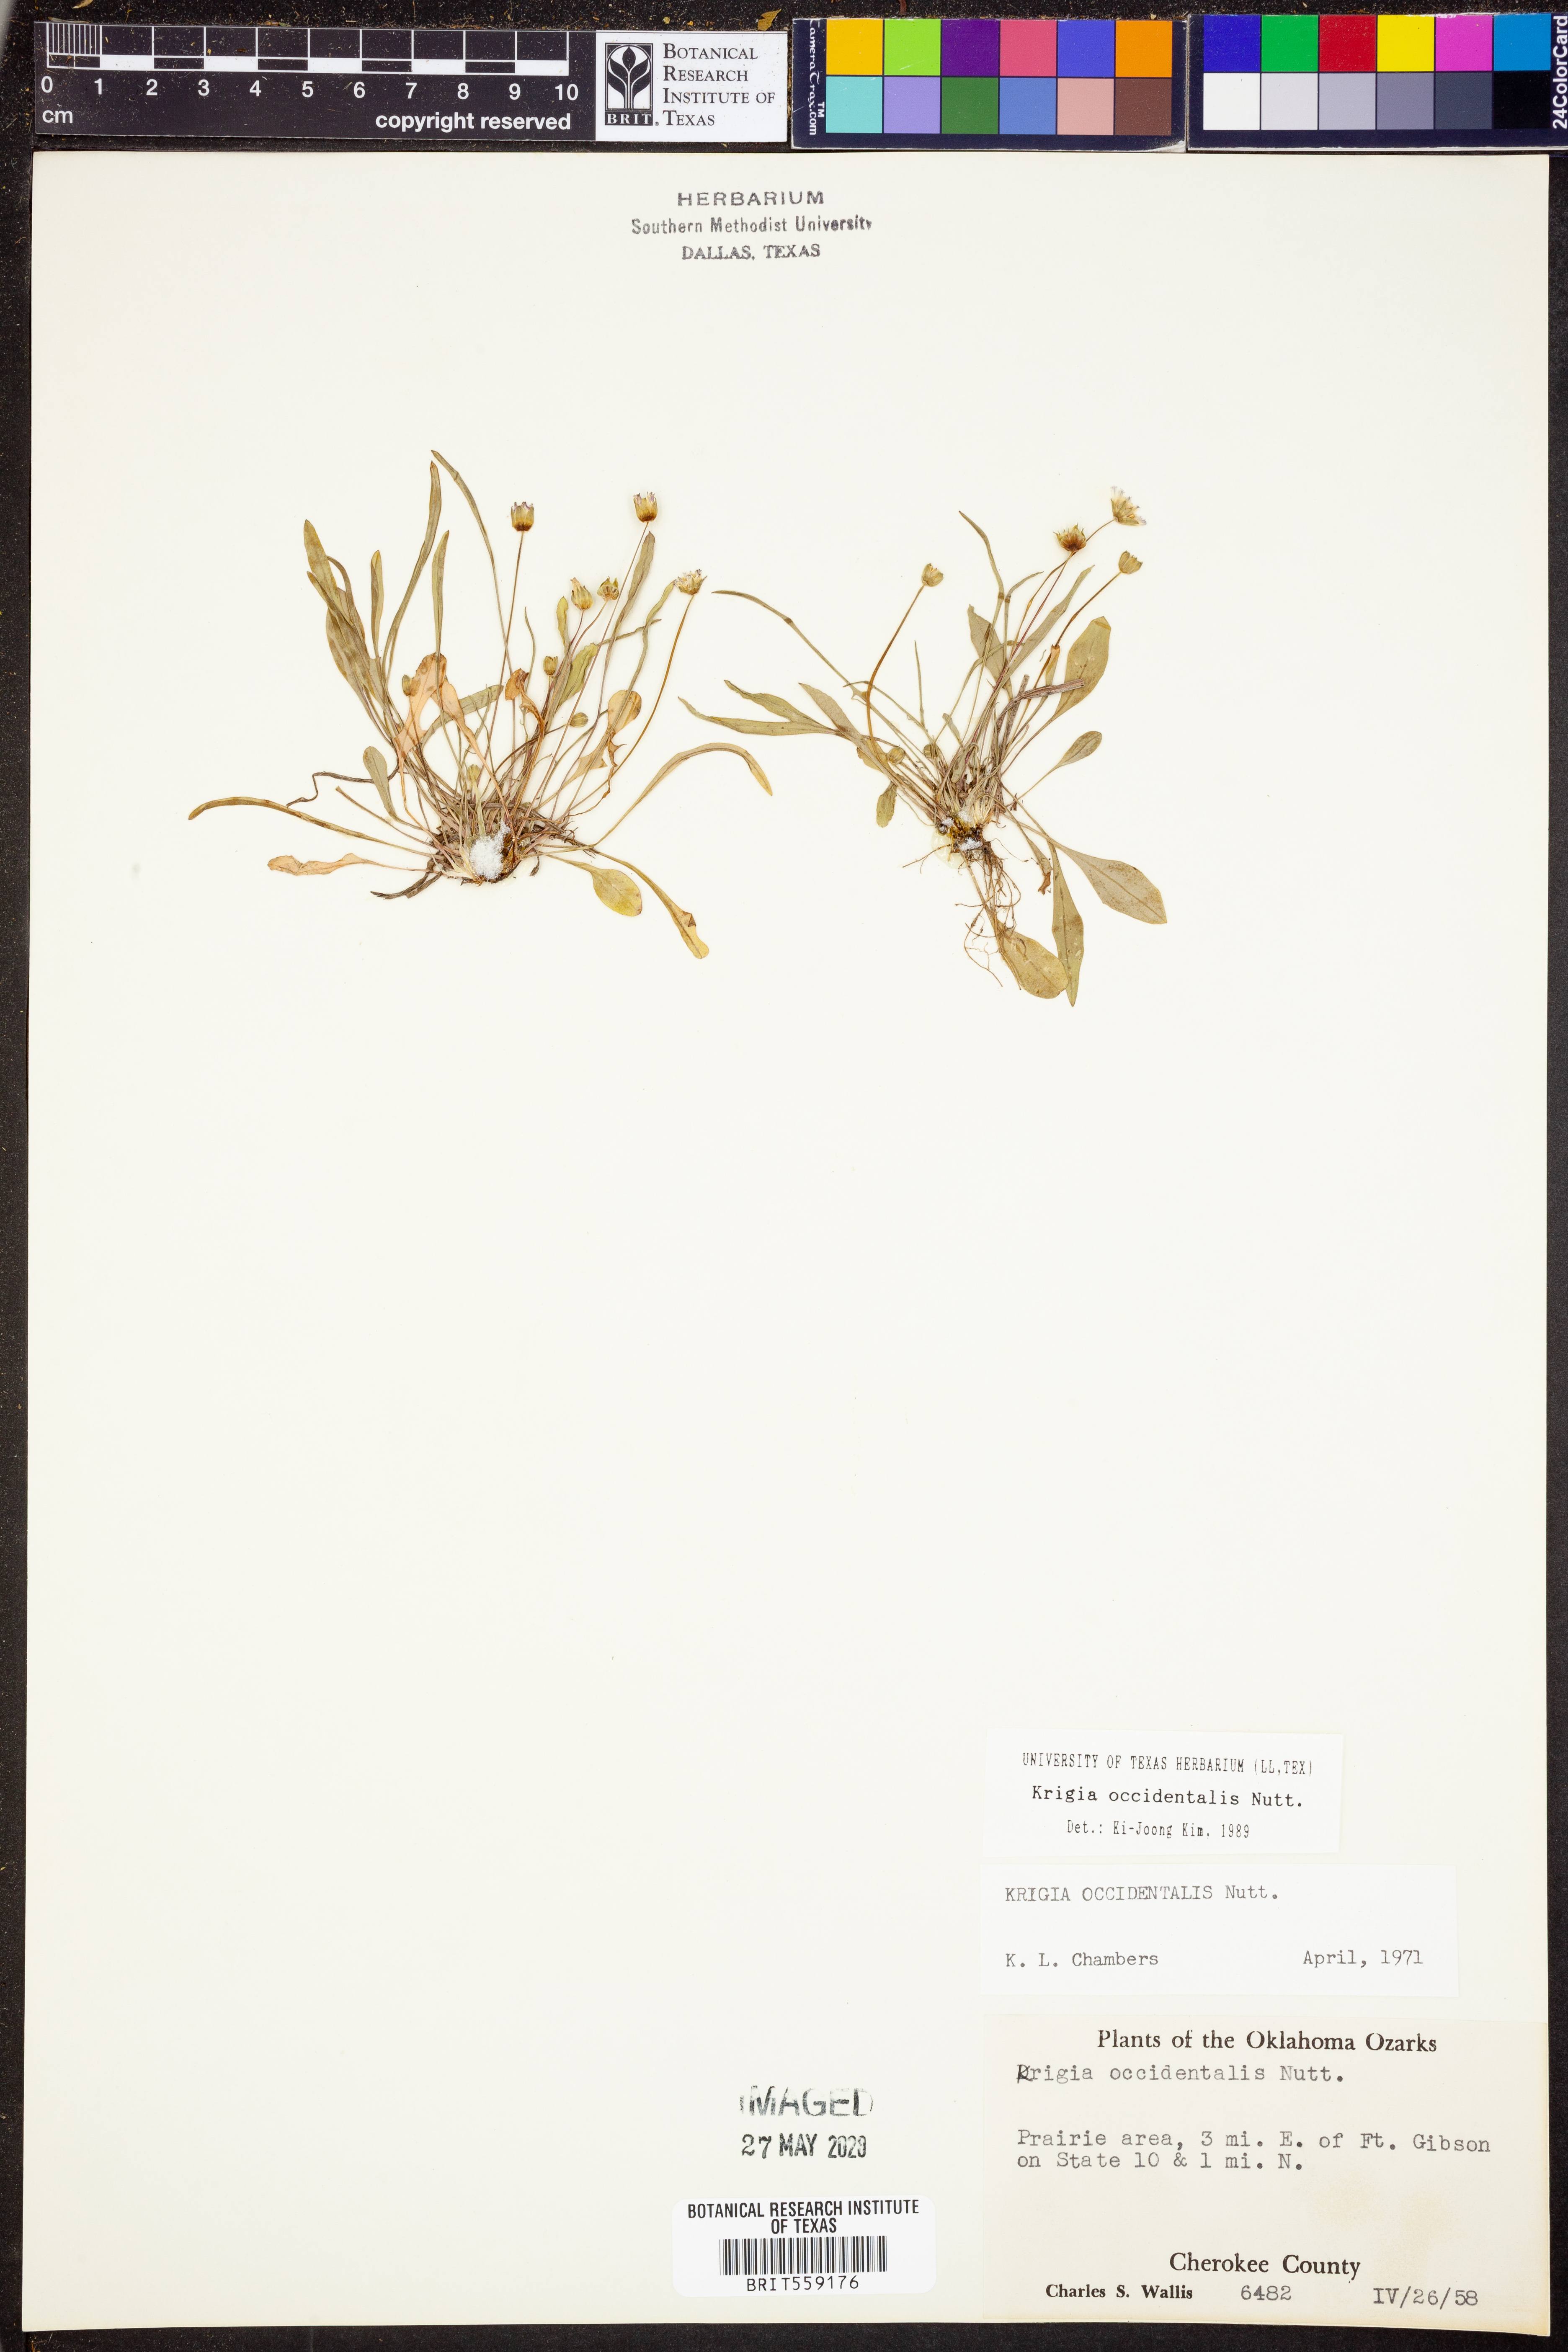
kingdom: Plantae
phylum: Tracheophyta
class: Magnoliopsida
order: Asterales
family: Asteraceae
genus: Krigia
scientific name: Krigia occidentalis
